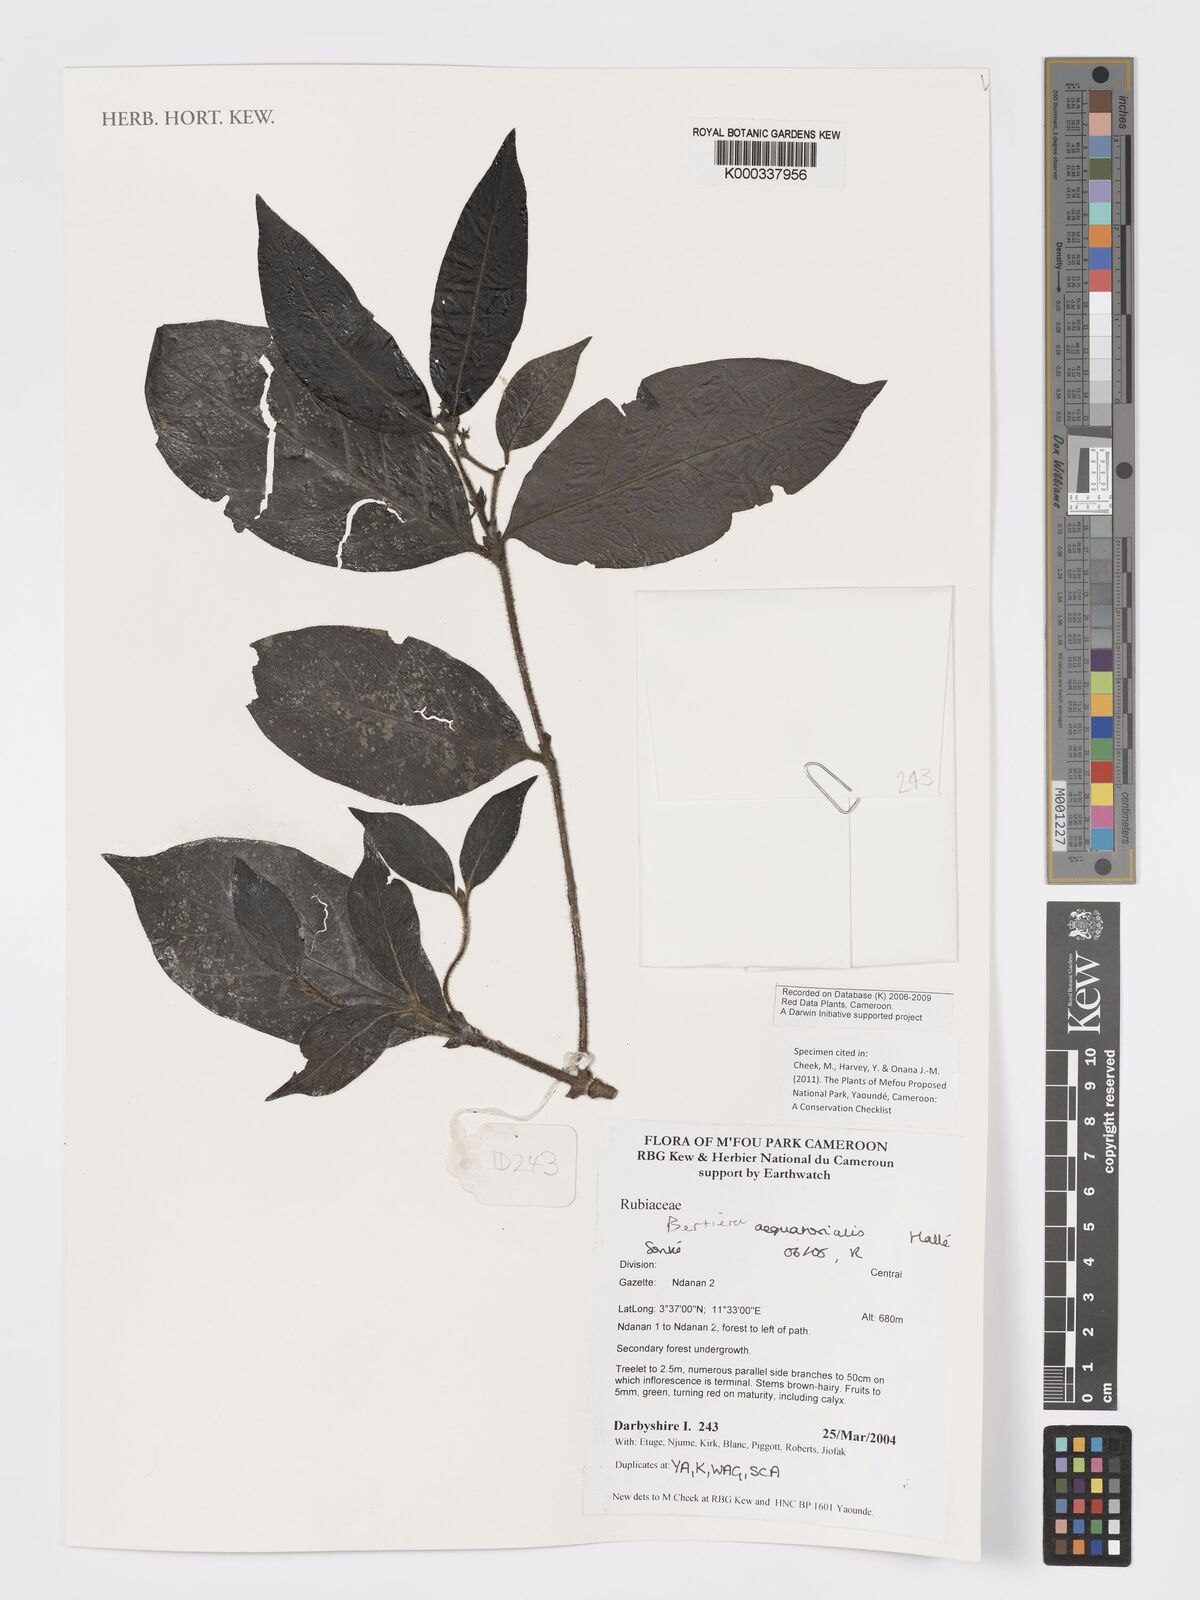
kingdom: Plantae
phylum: Tracheophyta
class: Magnoliopsida
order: Gentianales
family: Rubiaceae
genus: Bertiera
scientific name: Bertiera
